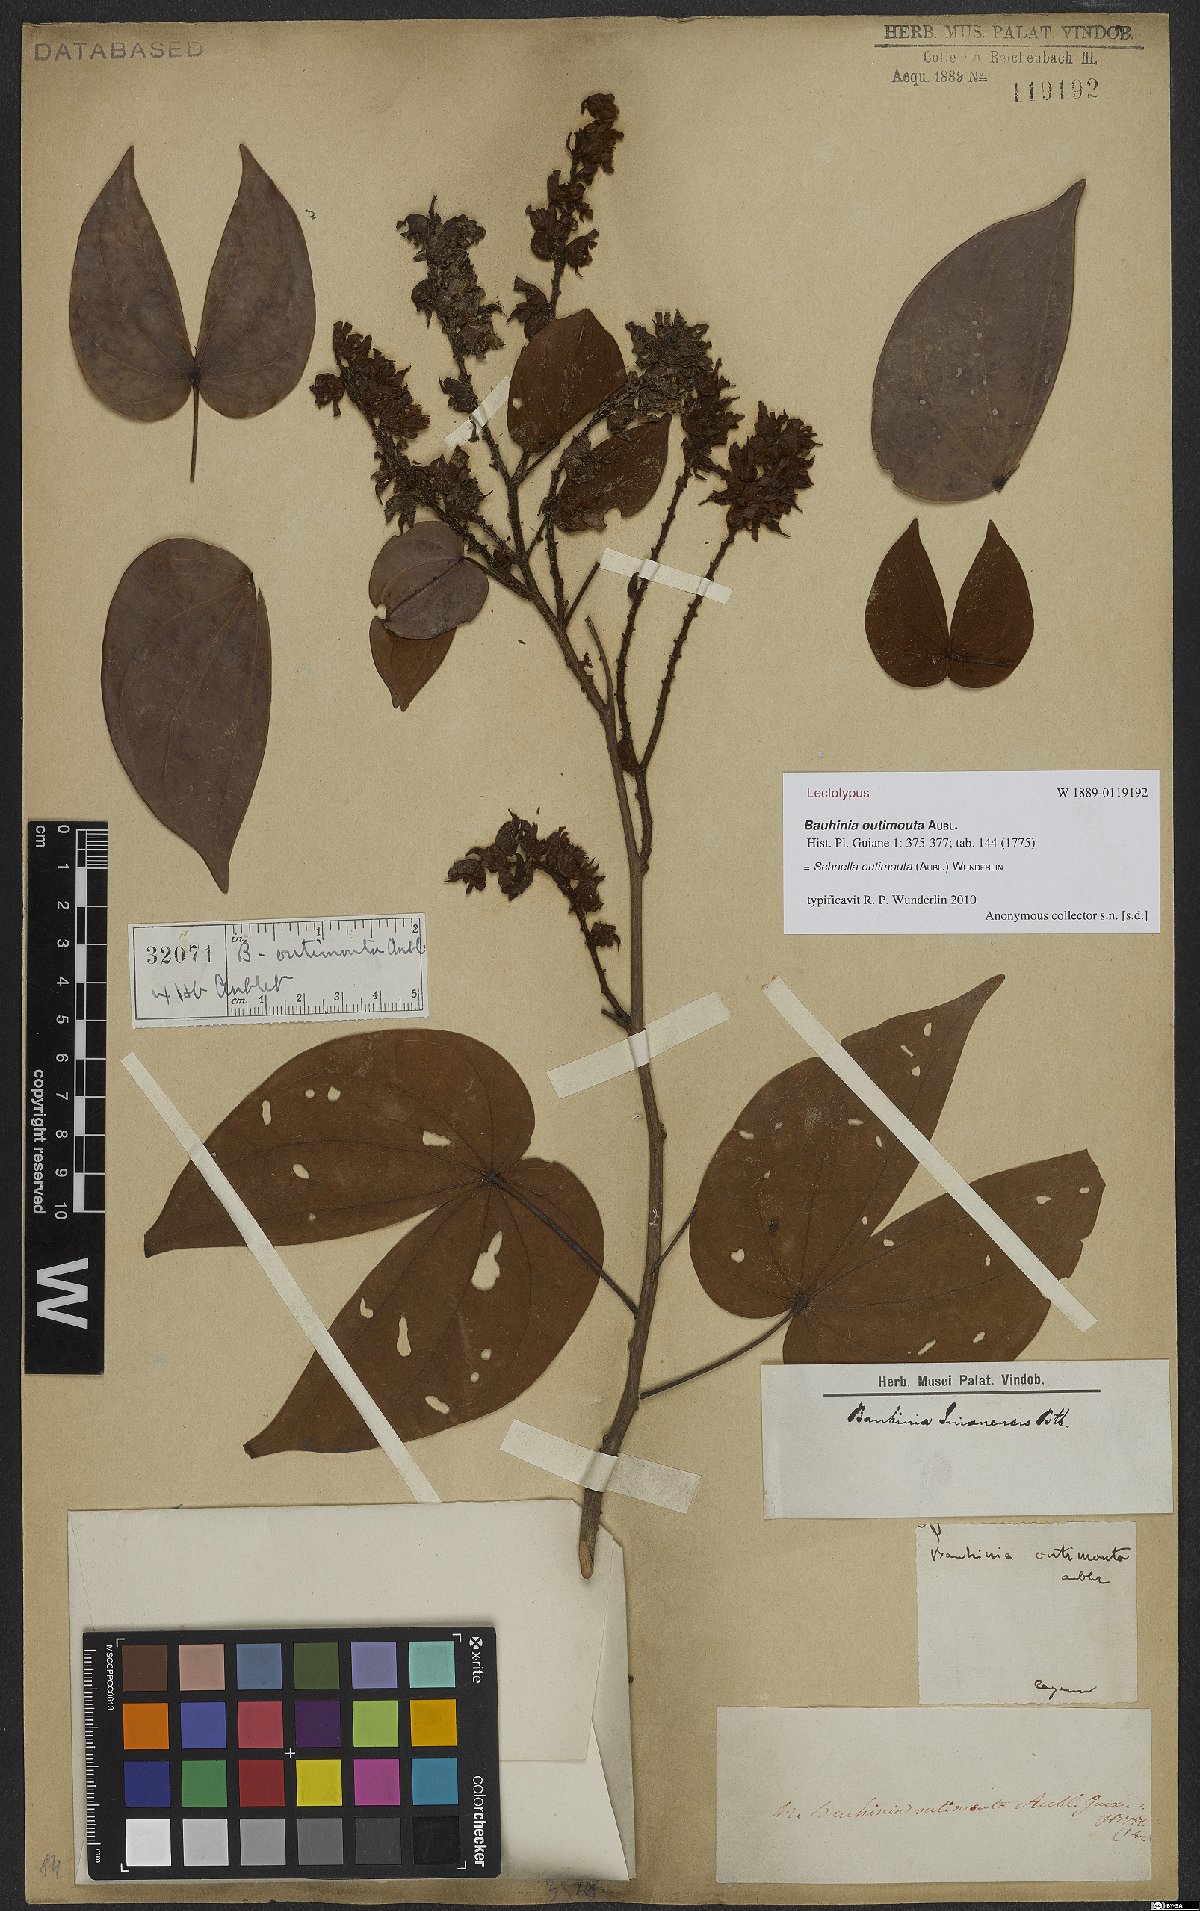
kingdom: Plantae
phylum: Tracheophyta
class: Magnoliopsida
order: Fabales
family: Fabaceae
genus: Schnella
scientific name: Schnella outimouta
